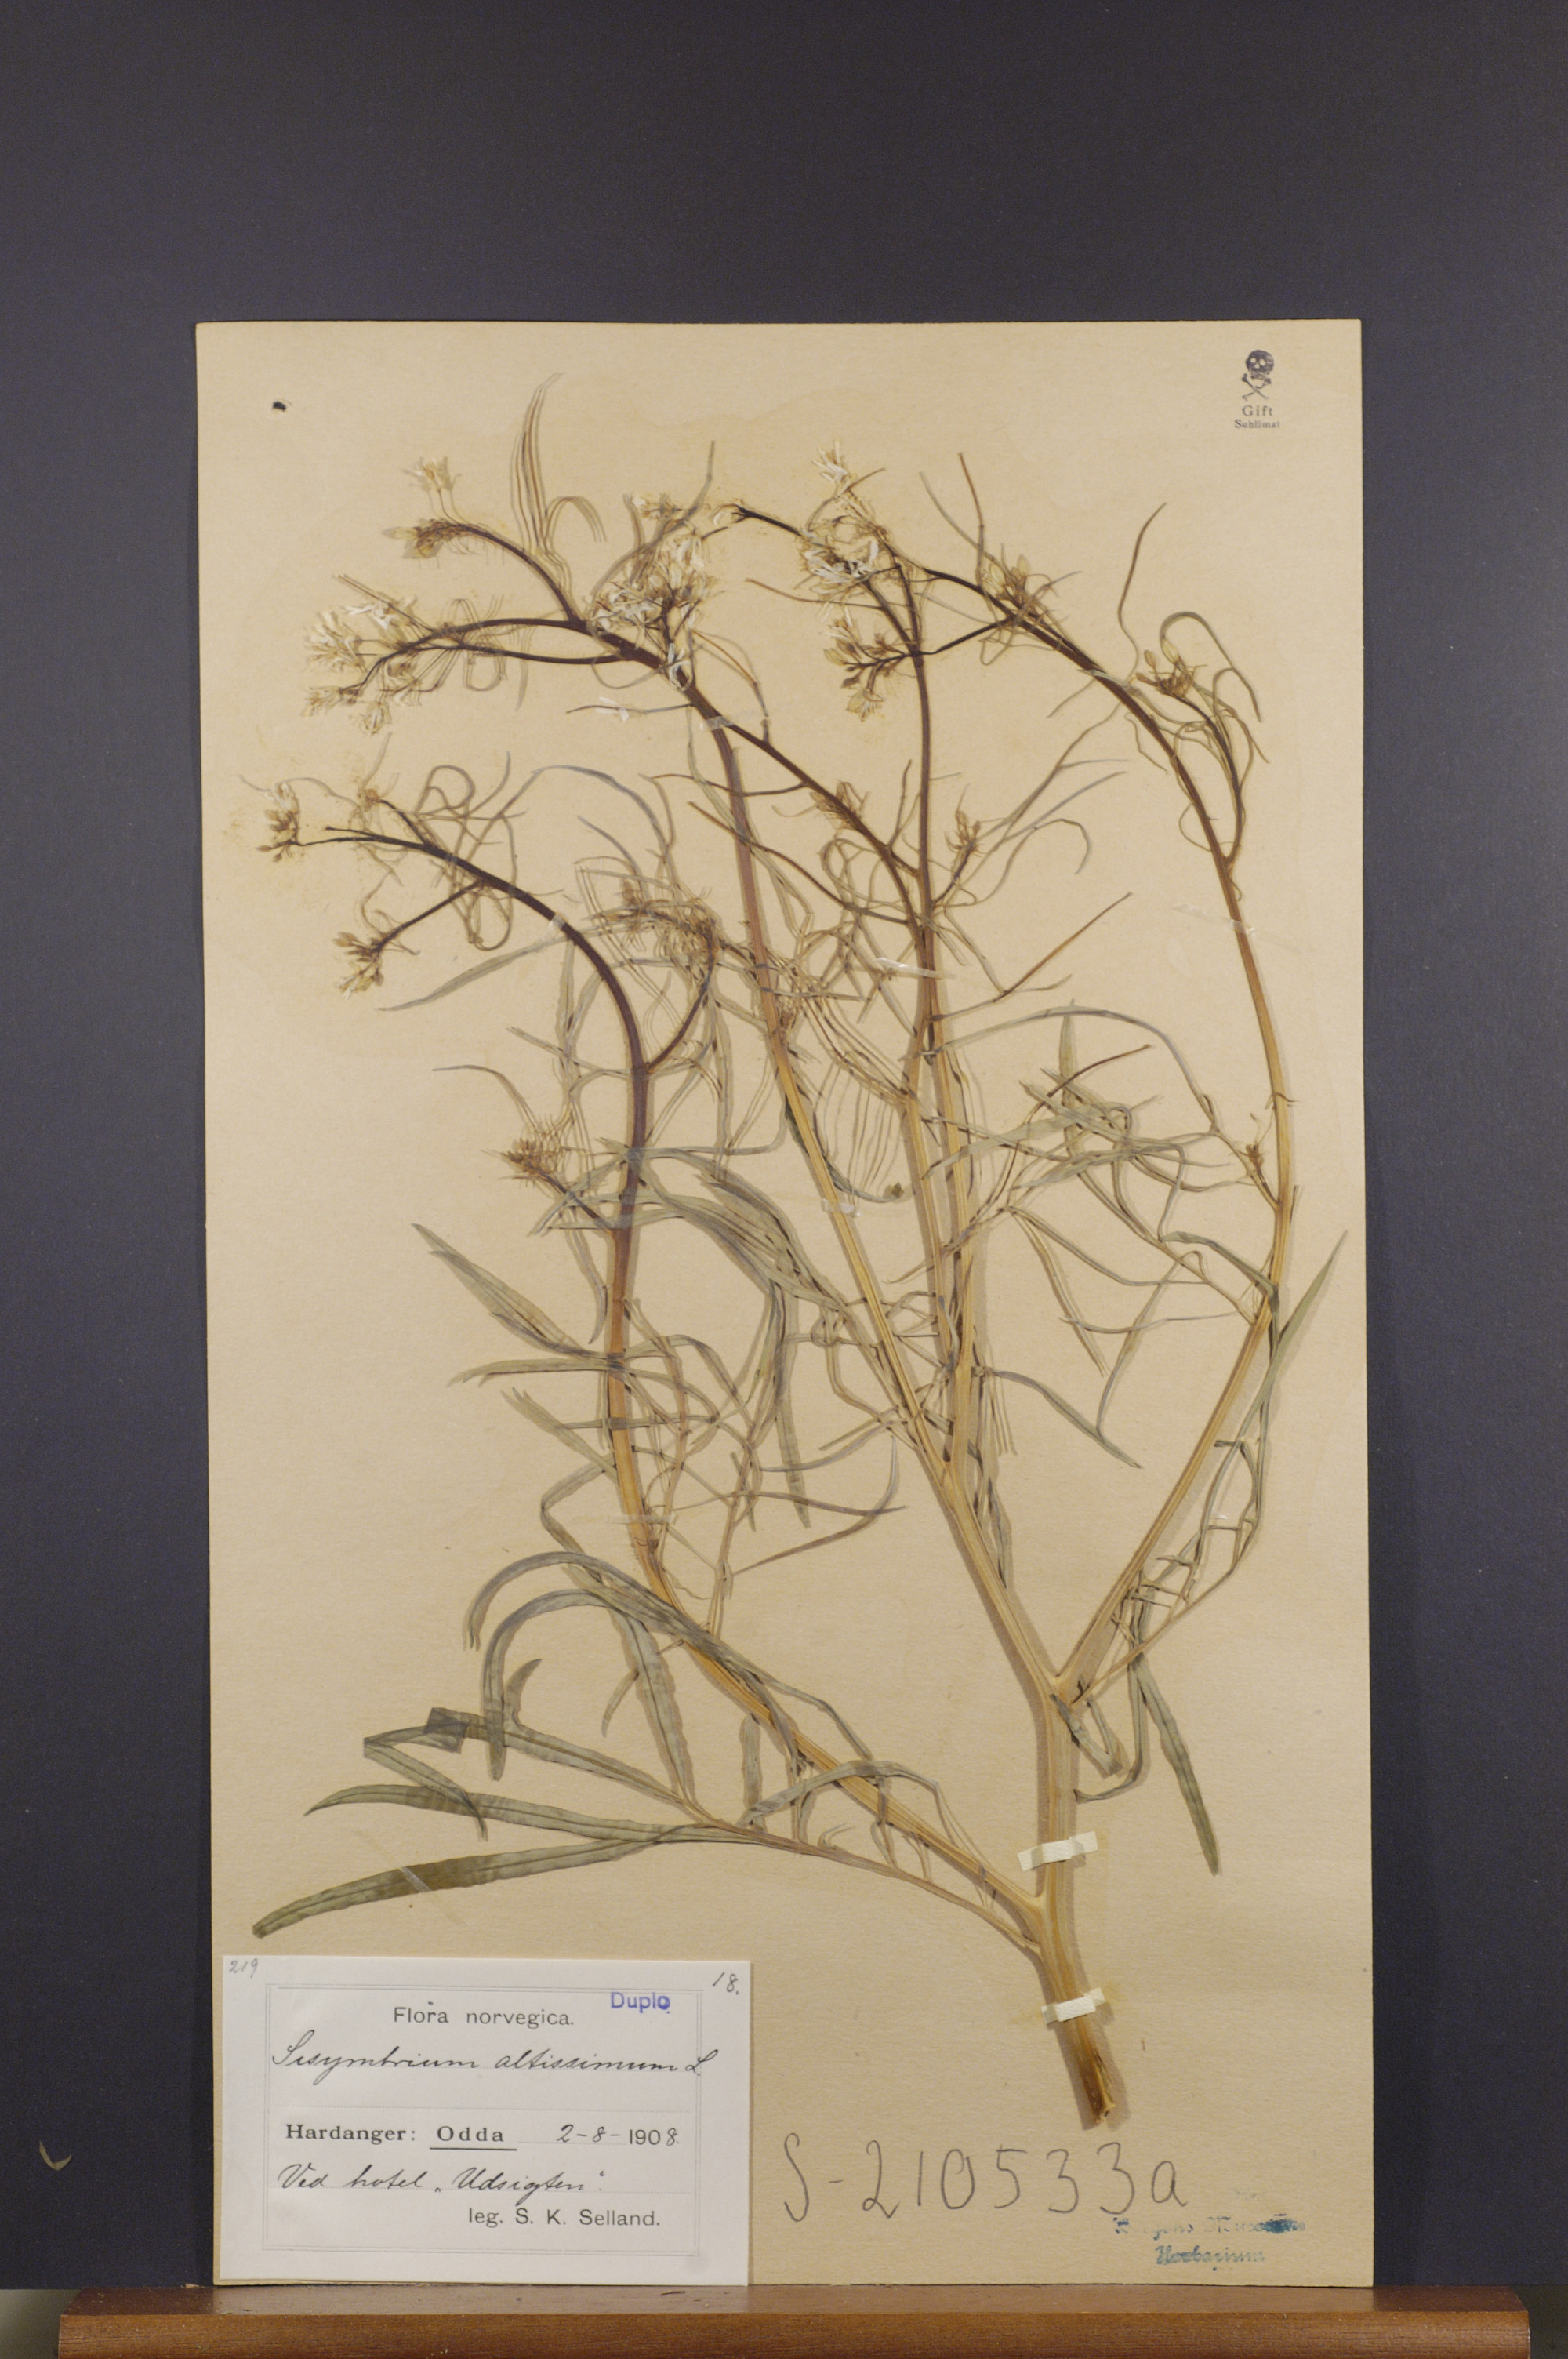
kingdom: Plantae
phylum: Tracheophyta
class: Magnoliopsida
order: Brassicales
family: Brassicaceae
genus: Sisymbrium
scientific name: Sisymbrium altissimum
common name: Tall rocket
